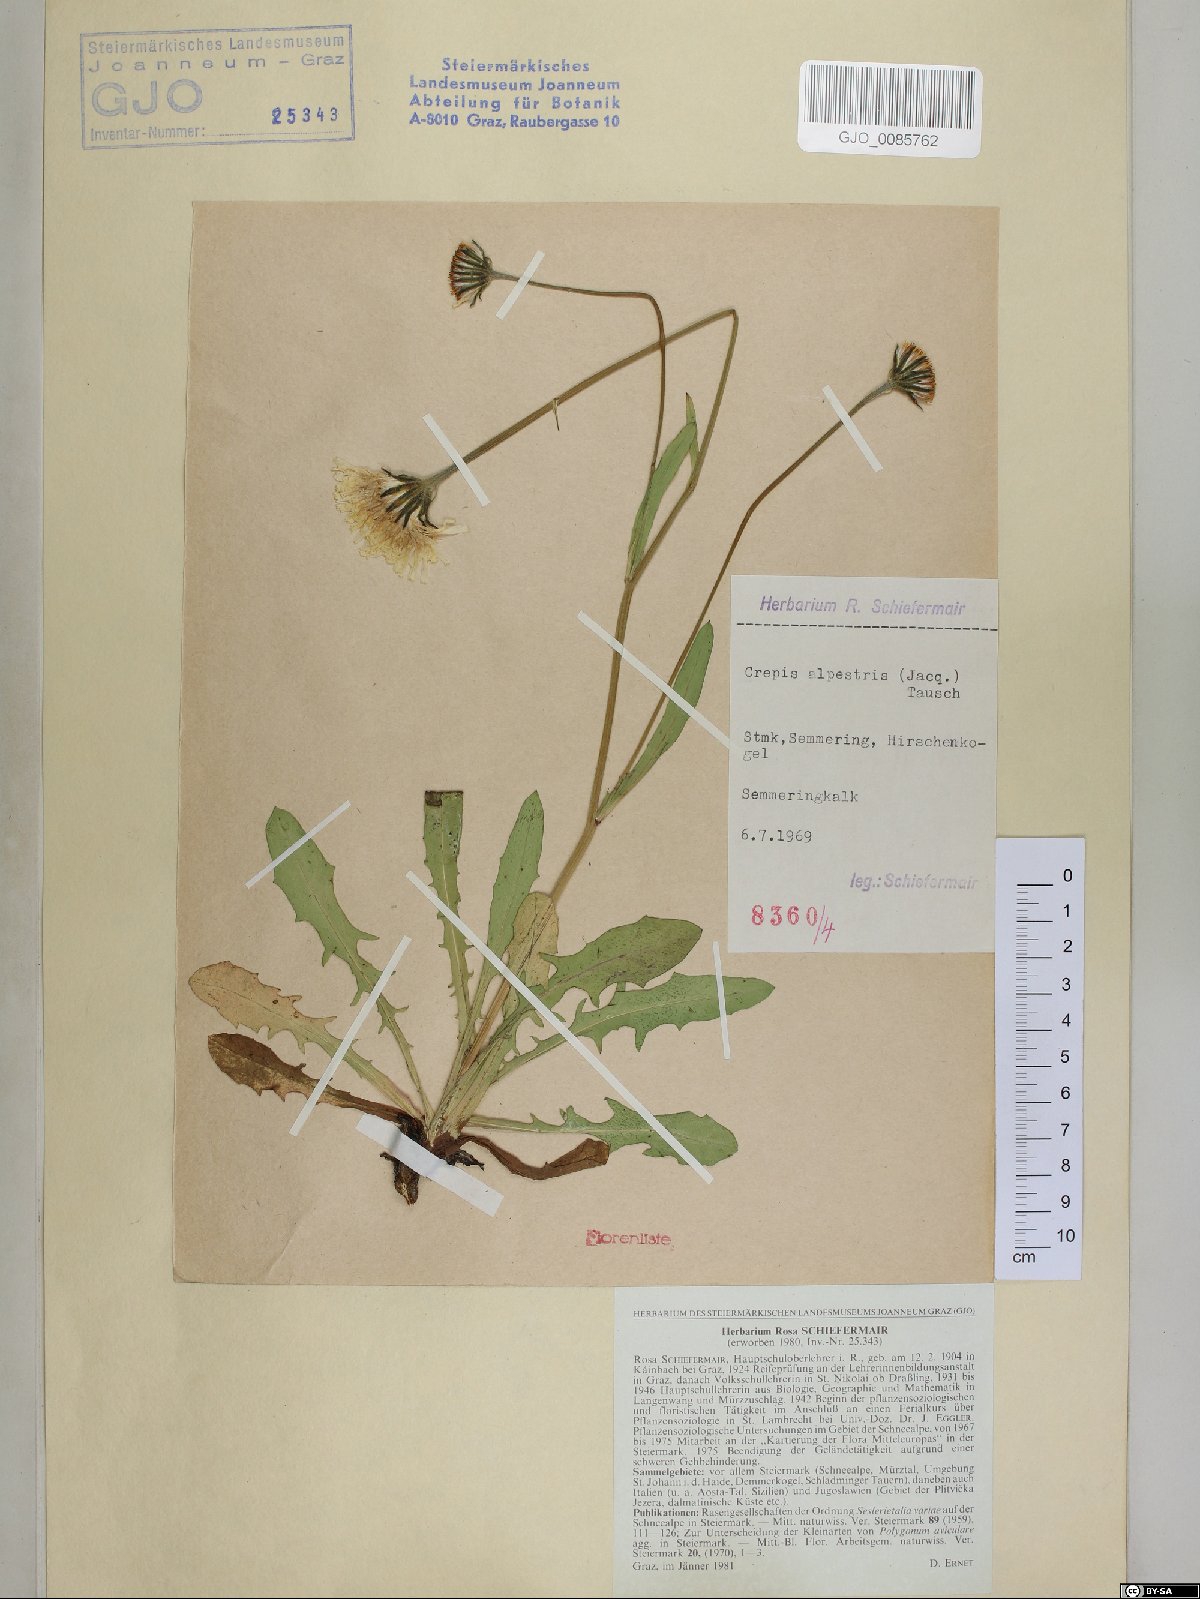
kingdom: Plantae
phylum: Tracheophyta
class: Magnoliopsida
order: Asterales
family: Asteraceae
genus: Crepis
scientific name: Crepis alpestris
